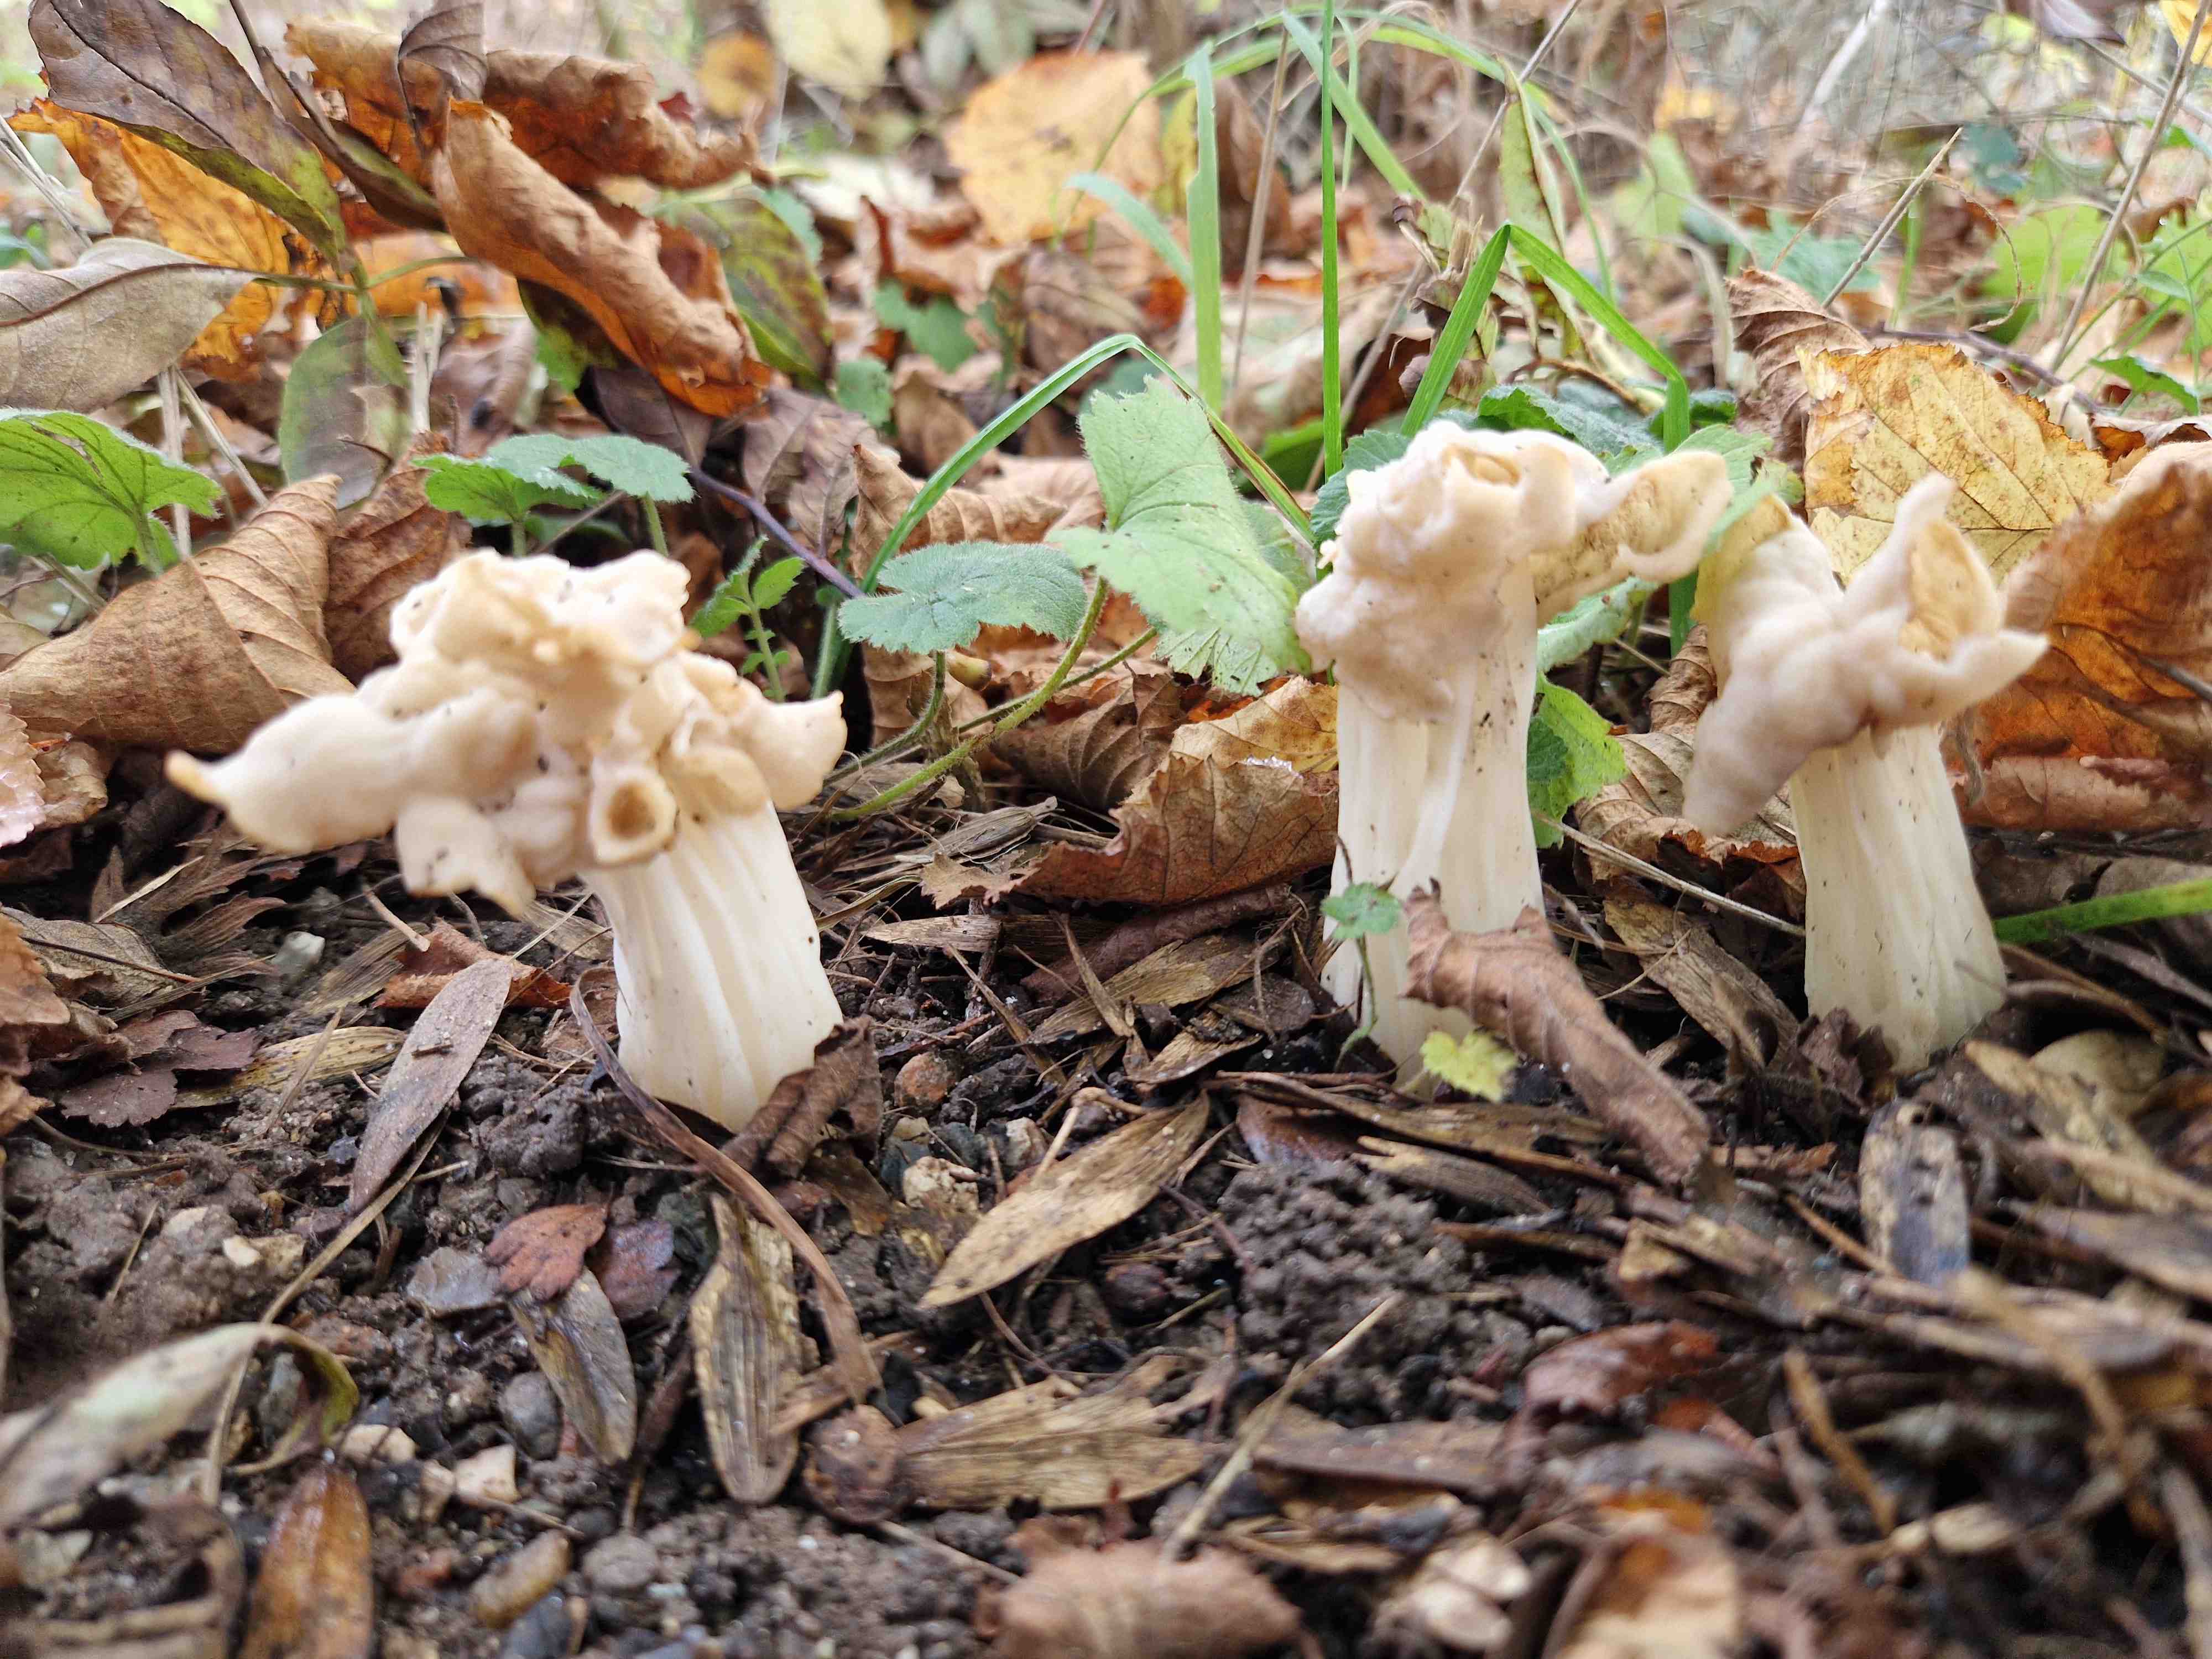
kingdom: Fungi
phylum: Ascomycota
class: Pezizomycetes
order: Pezizales
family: Helvellaceae
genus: Helvella
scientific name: Helvella crispa
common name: kruset foldhat
